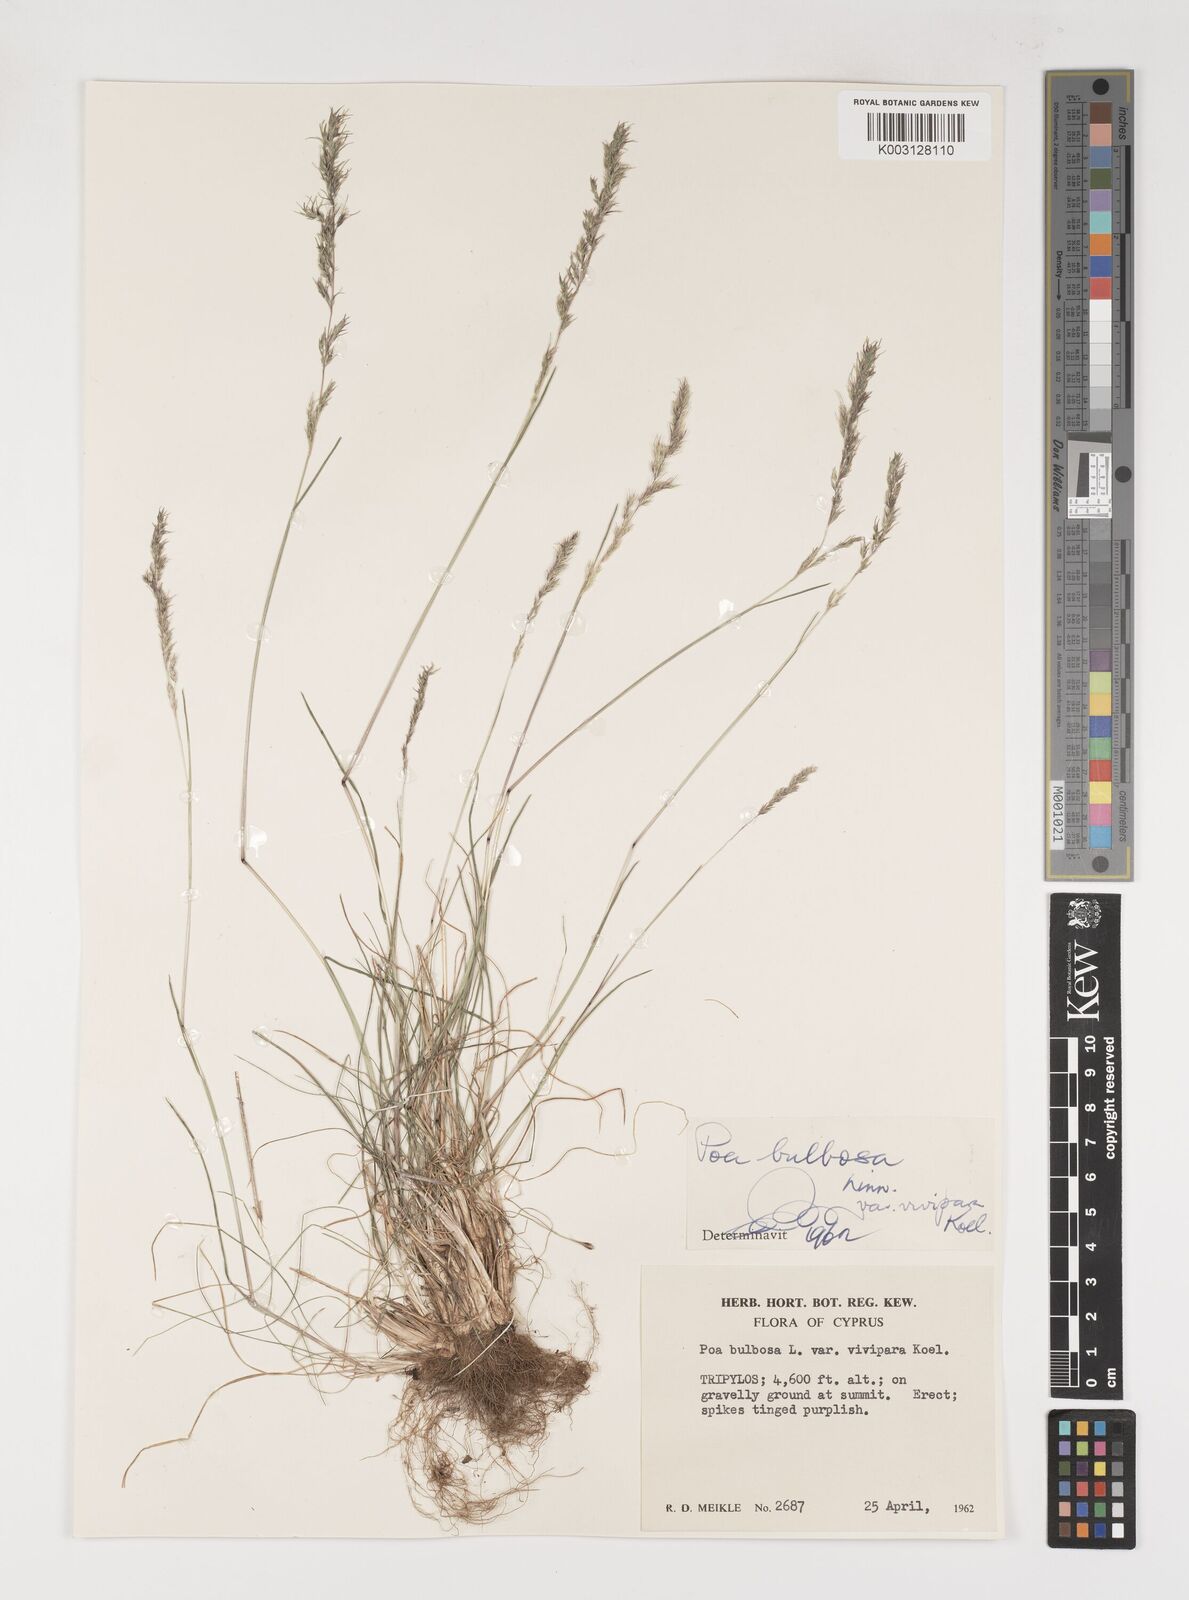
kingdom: Plantae
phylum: Tracheophyta
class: Liliopsida
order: Poales
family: Poaceae
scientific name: Poaceae
